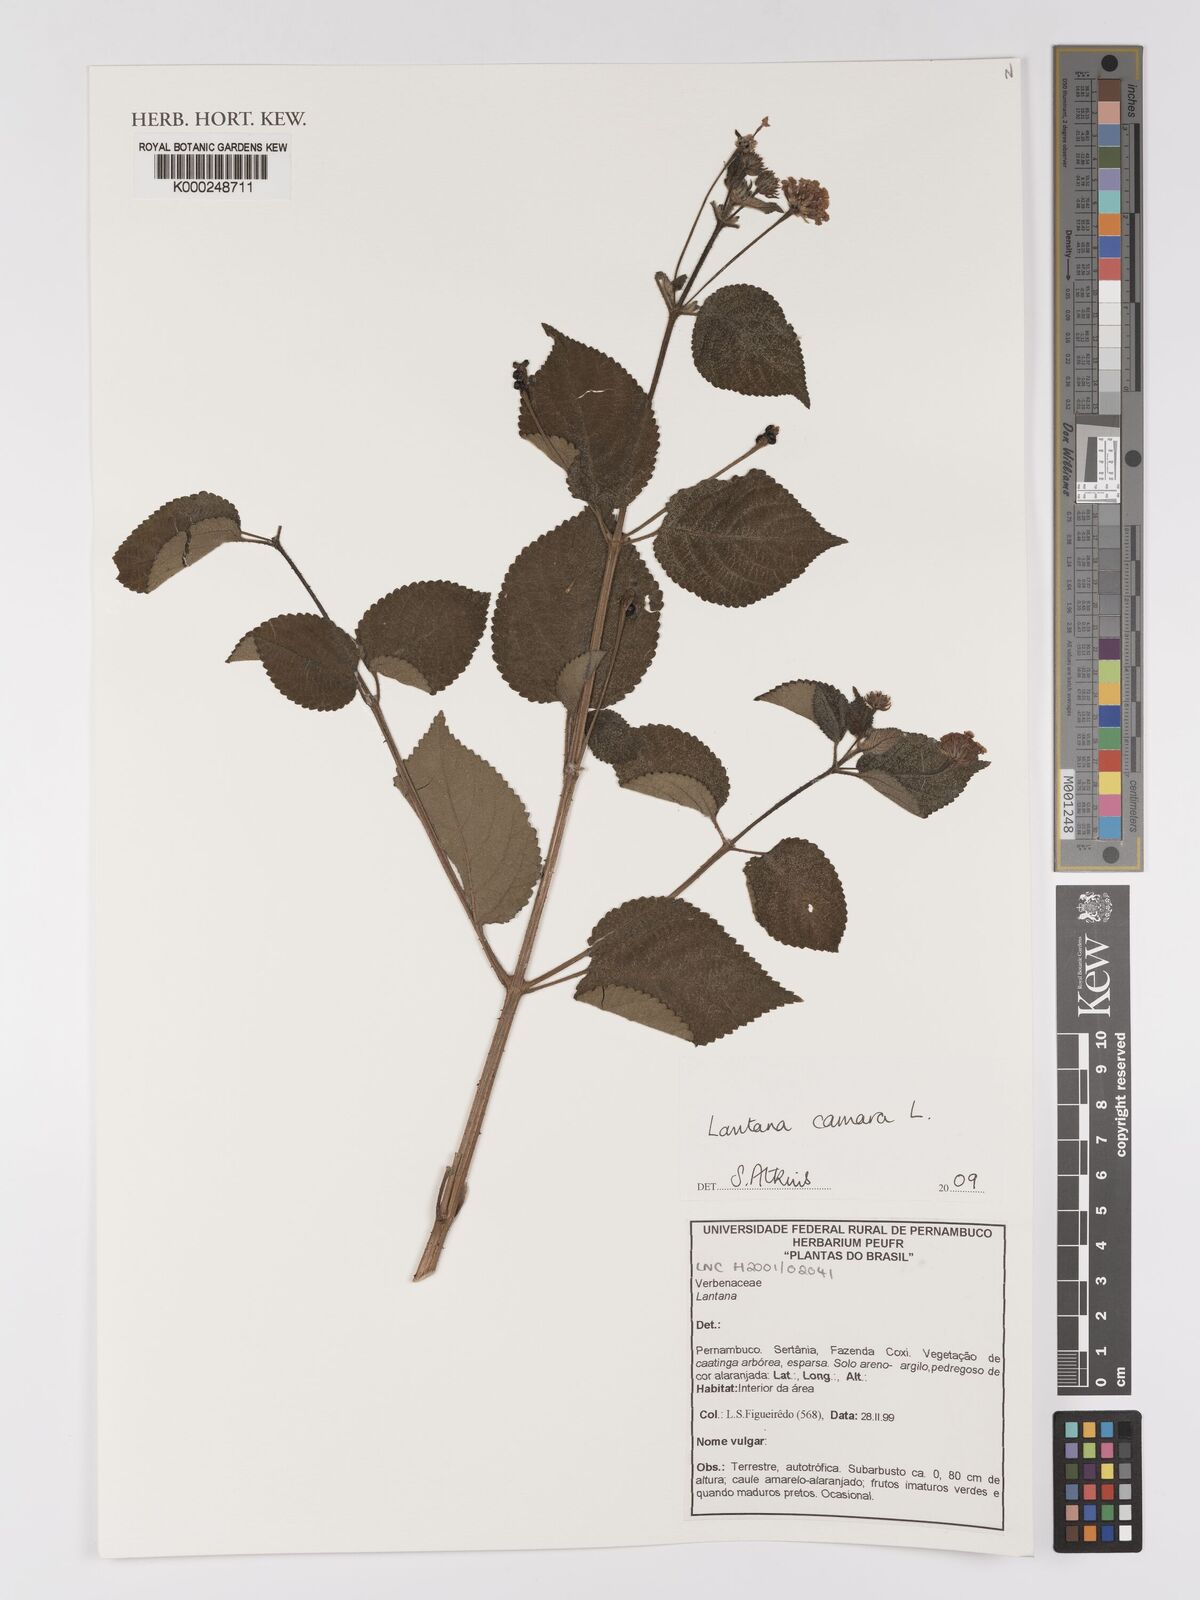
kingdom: Plantae
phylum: Tracheophyta
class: Magnoliopsida
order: Lamiales
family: Verbenaceae
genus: Lantana
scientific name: Lantana camara
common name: Lantana
